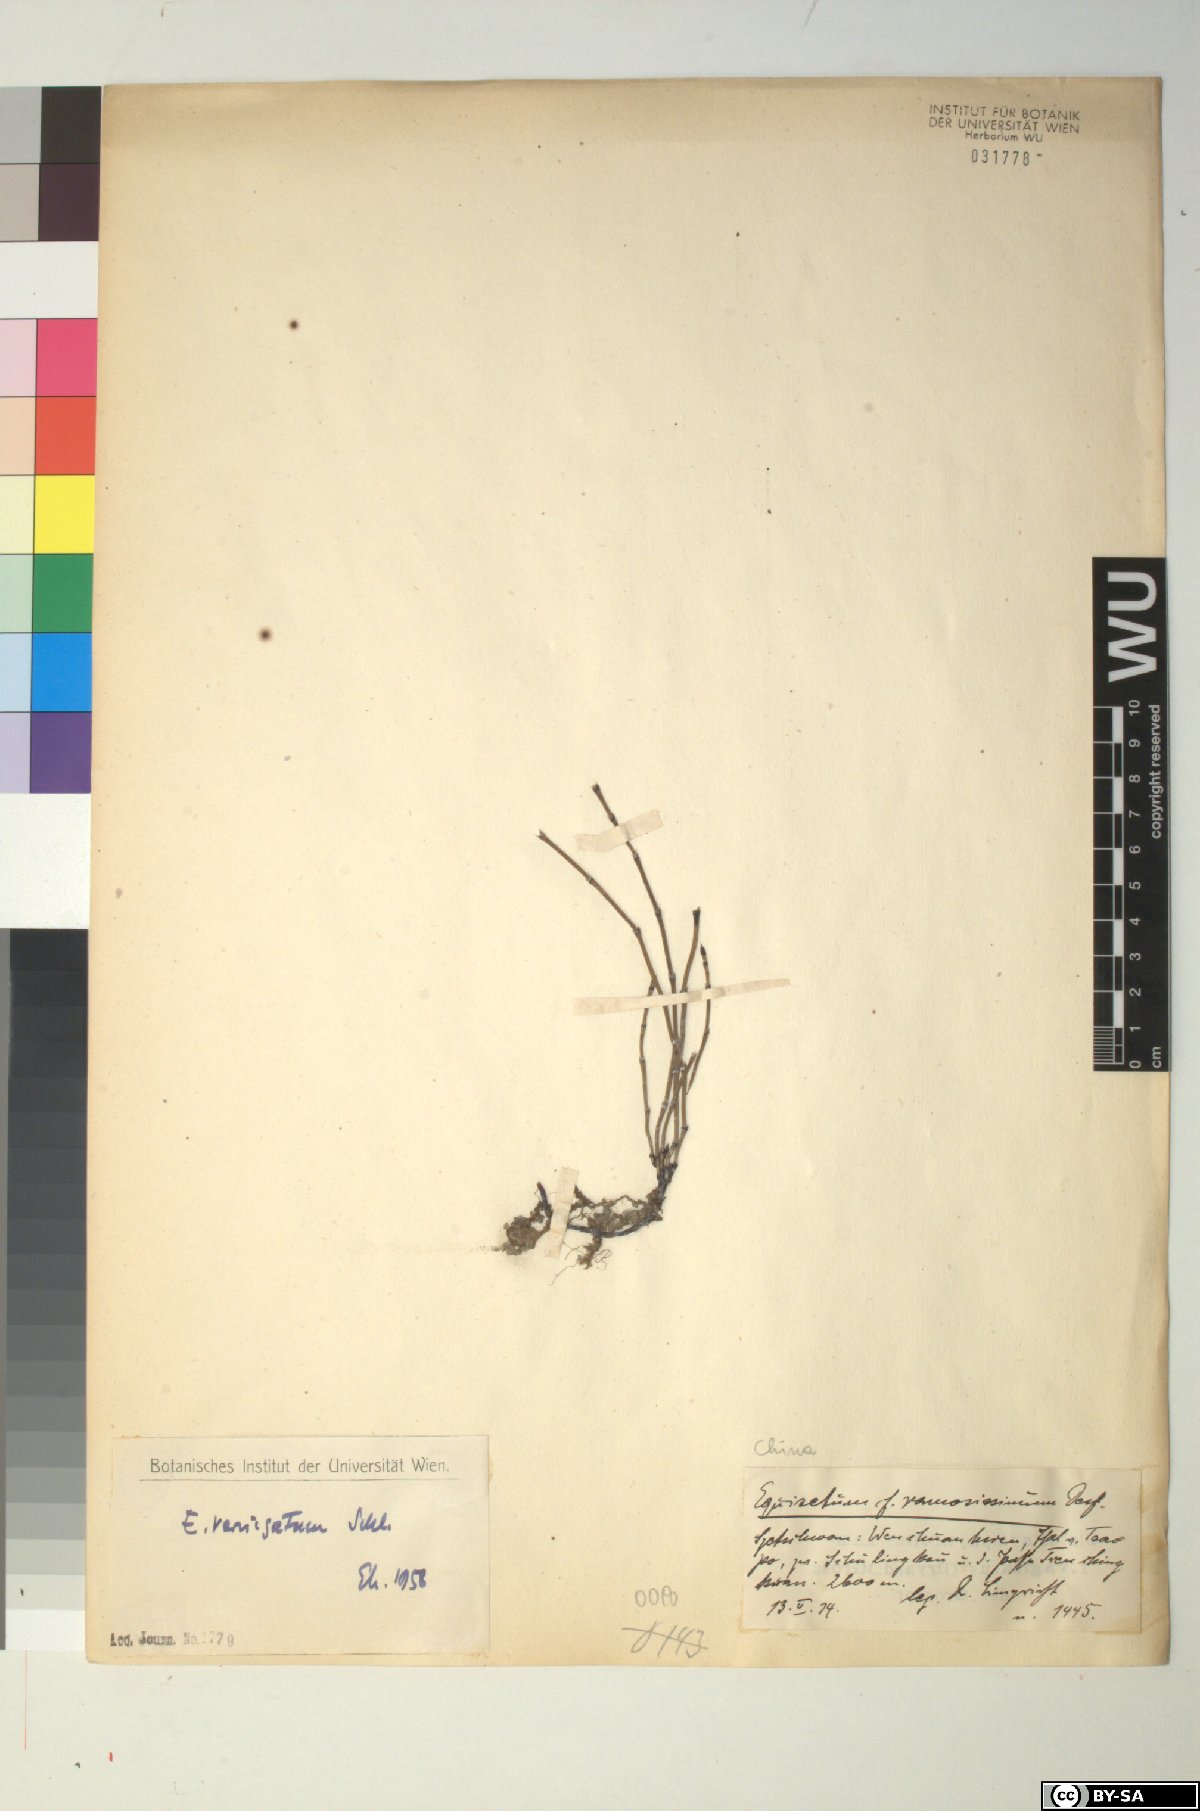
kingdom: Plantae
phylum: Tracheophyta
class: Polypodiopsida
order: Equisetales
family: Equisetaceae
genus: Equisetum
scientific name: Equisetum variegatum
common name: Variegated horsetail
